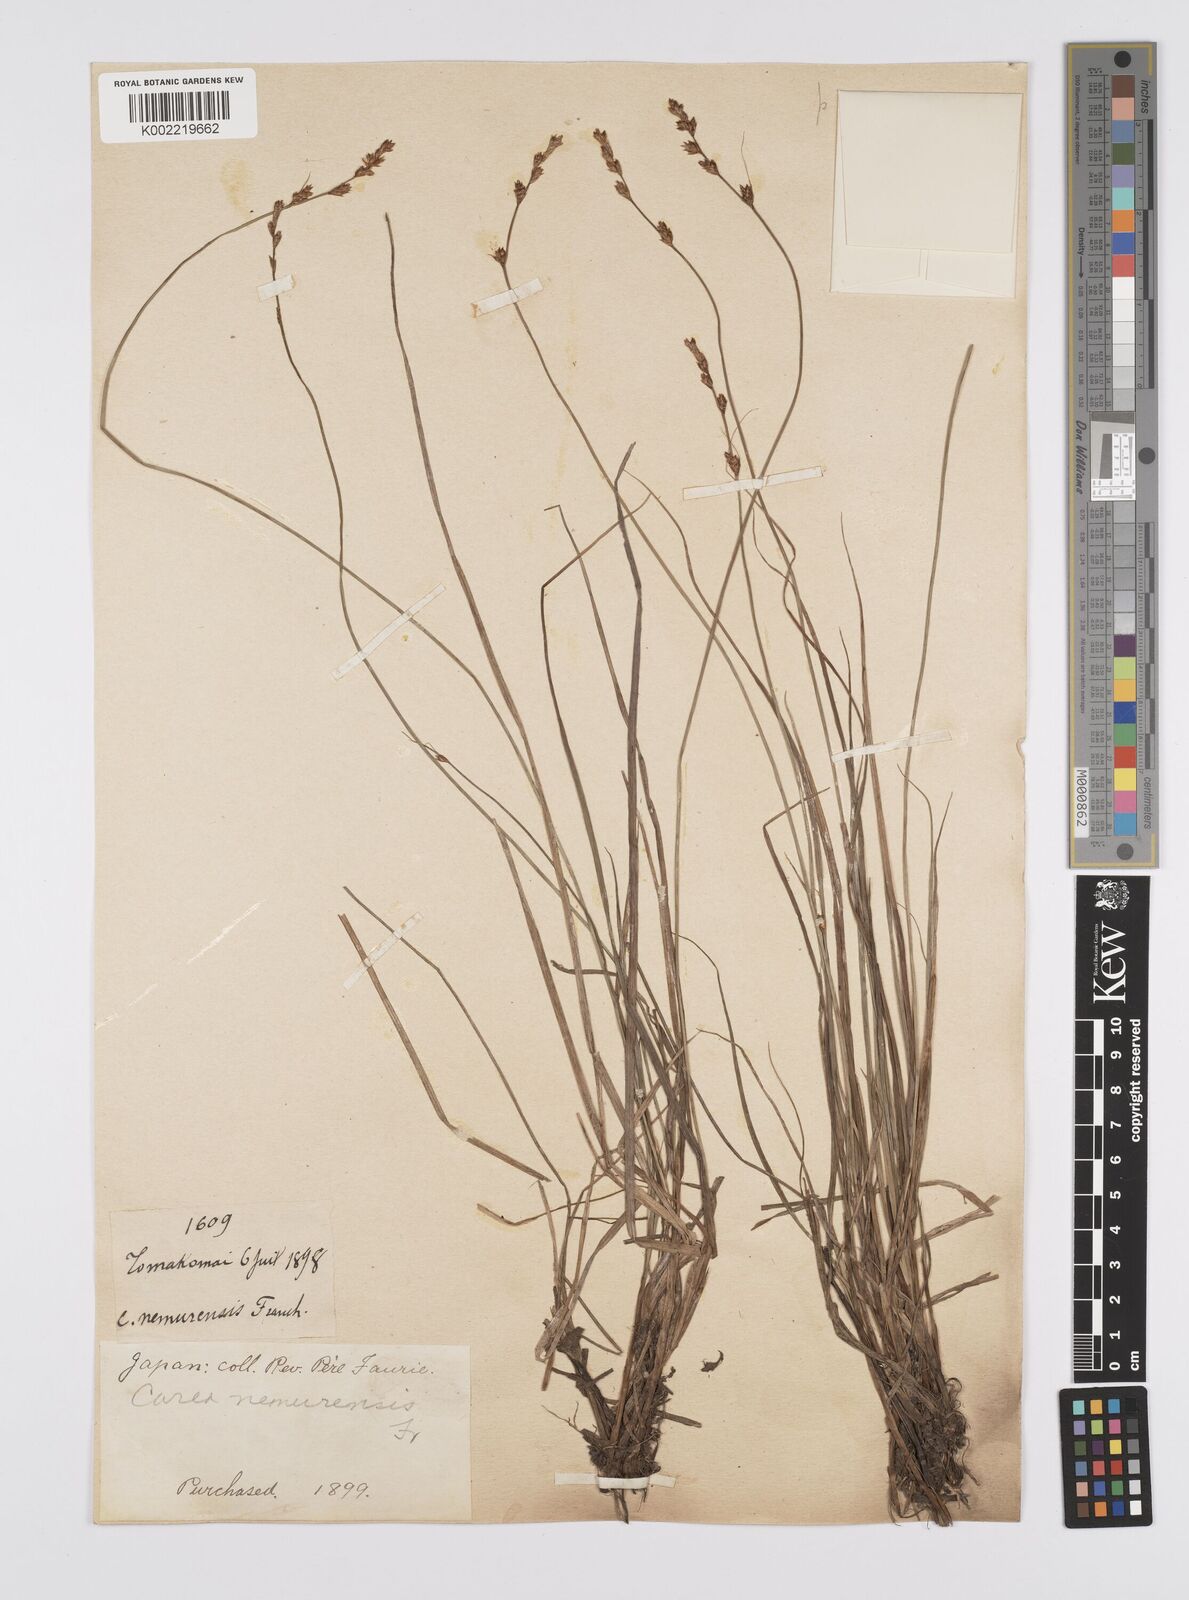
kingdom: Plantae
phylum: Tracheophyta
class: Liliopsida
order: Poales
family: Cyperaceae
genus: Carex
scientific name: Carex traiziscana
